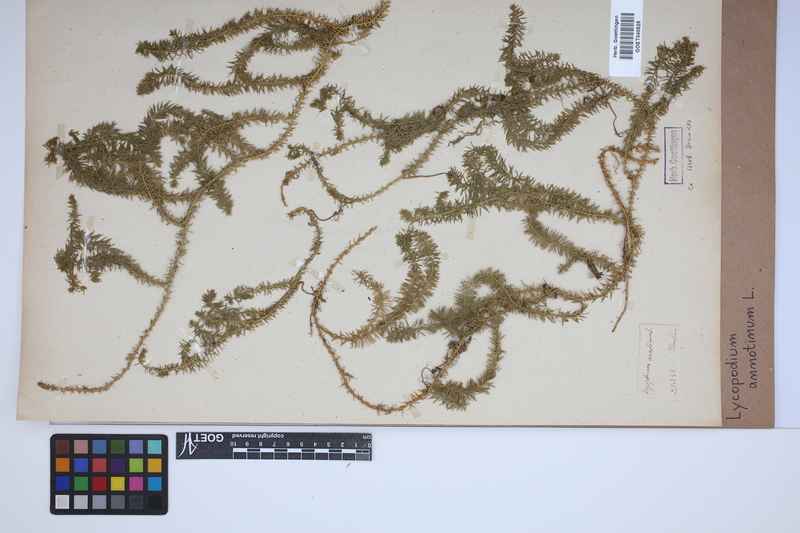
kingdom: Plantae
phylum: Tracheophyta
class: Lycopodiopsida
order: Lycopodiales
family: Lycopodiaceae
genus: Spinulum
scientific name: Spinulum annotinum
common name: Interrupted club-moss
